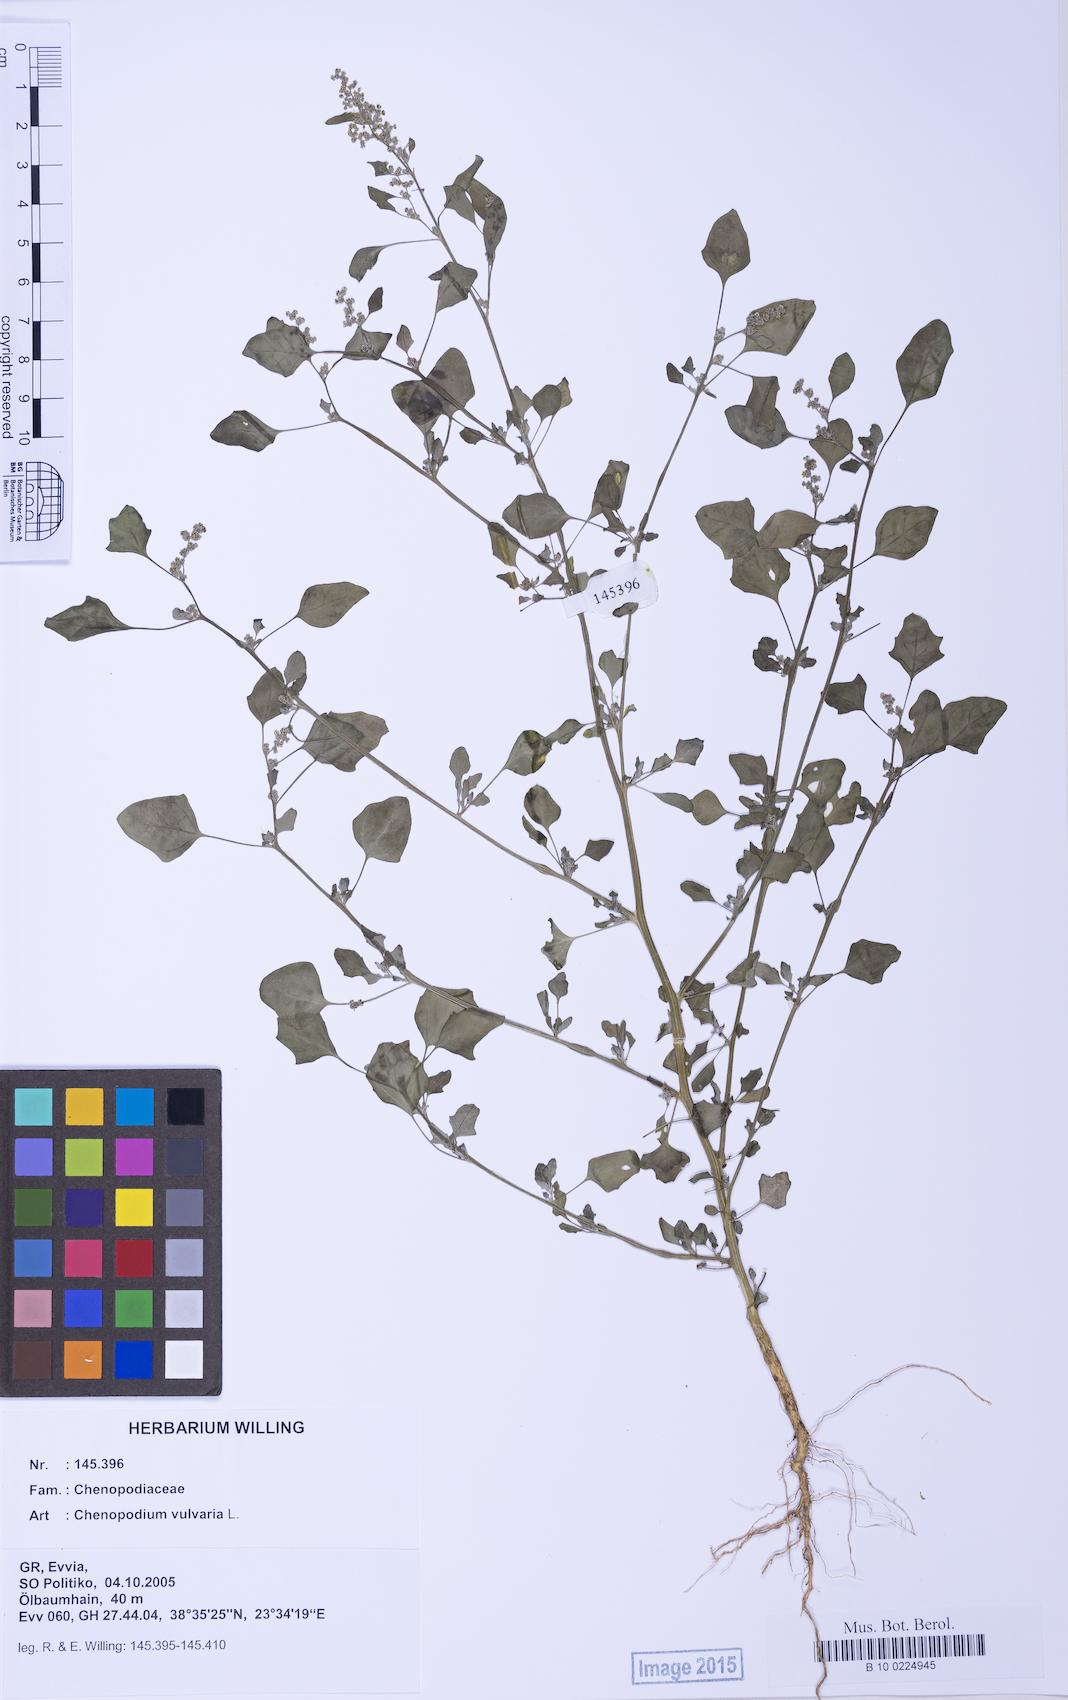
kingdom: Plantae
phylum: Tracheophyta
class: Magnoliopsida
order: Caryophyllales
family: Amaranthaceae
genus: Chenopodium
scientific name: Chenopodium vulvaria
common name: Stinking goosefoot
